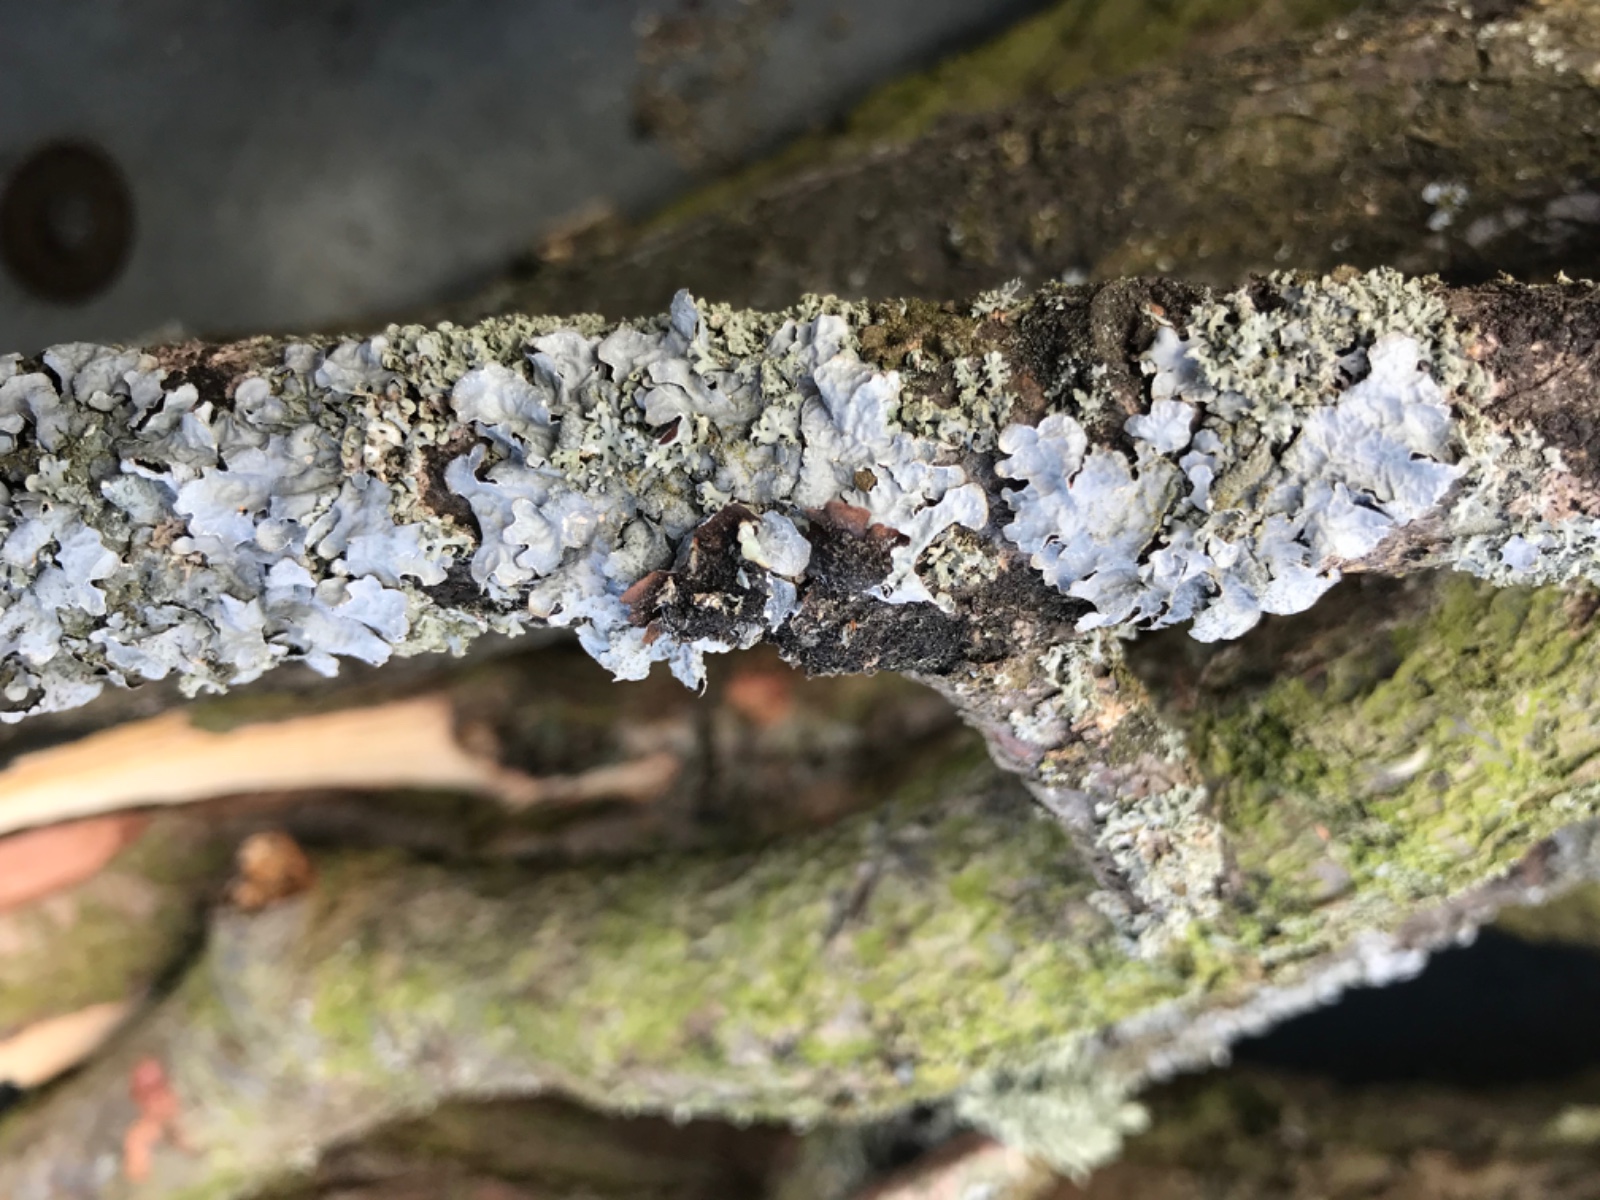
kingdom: Fungi
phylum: Ascomycota
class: Lecanoromycetes
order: Lecanorales
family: Parmeliaceae
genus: Parmelia
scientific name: Parmelia sulcata
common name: rynket skållav
